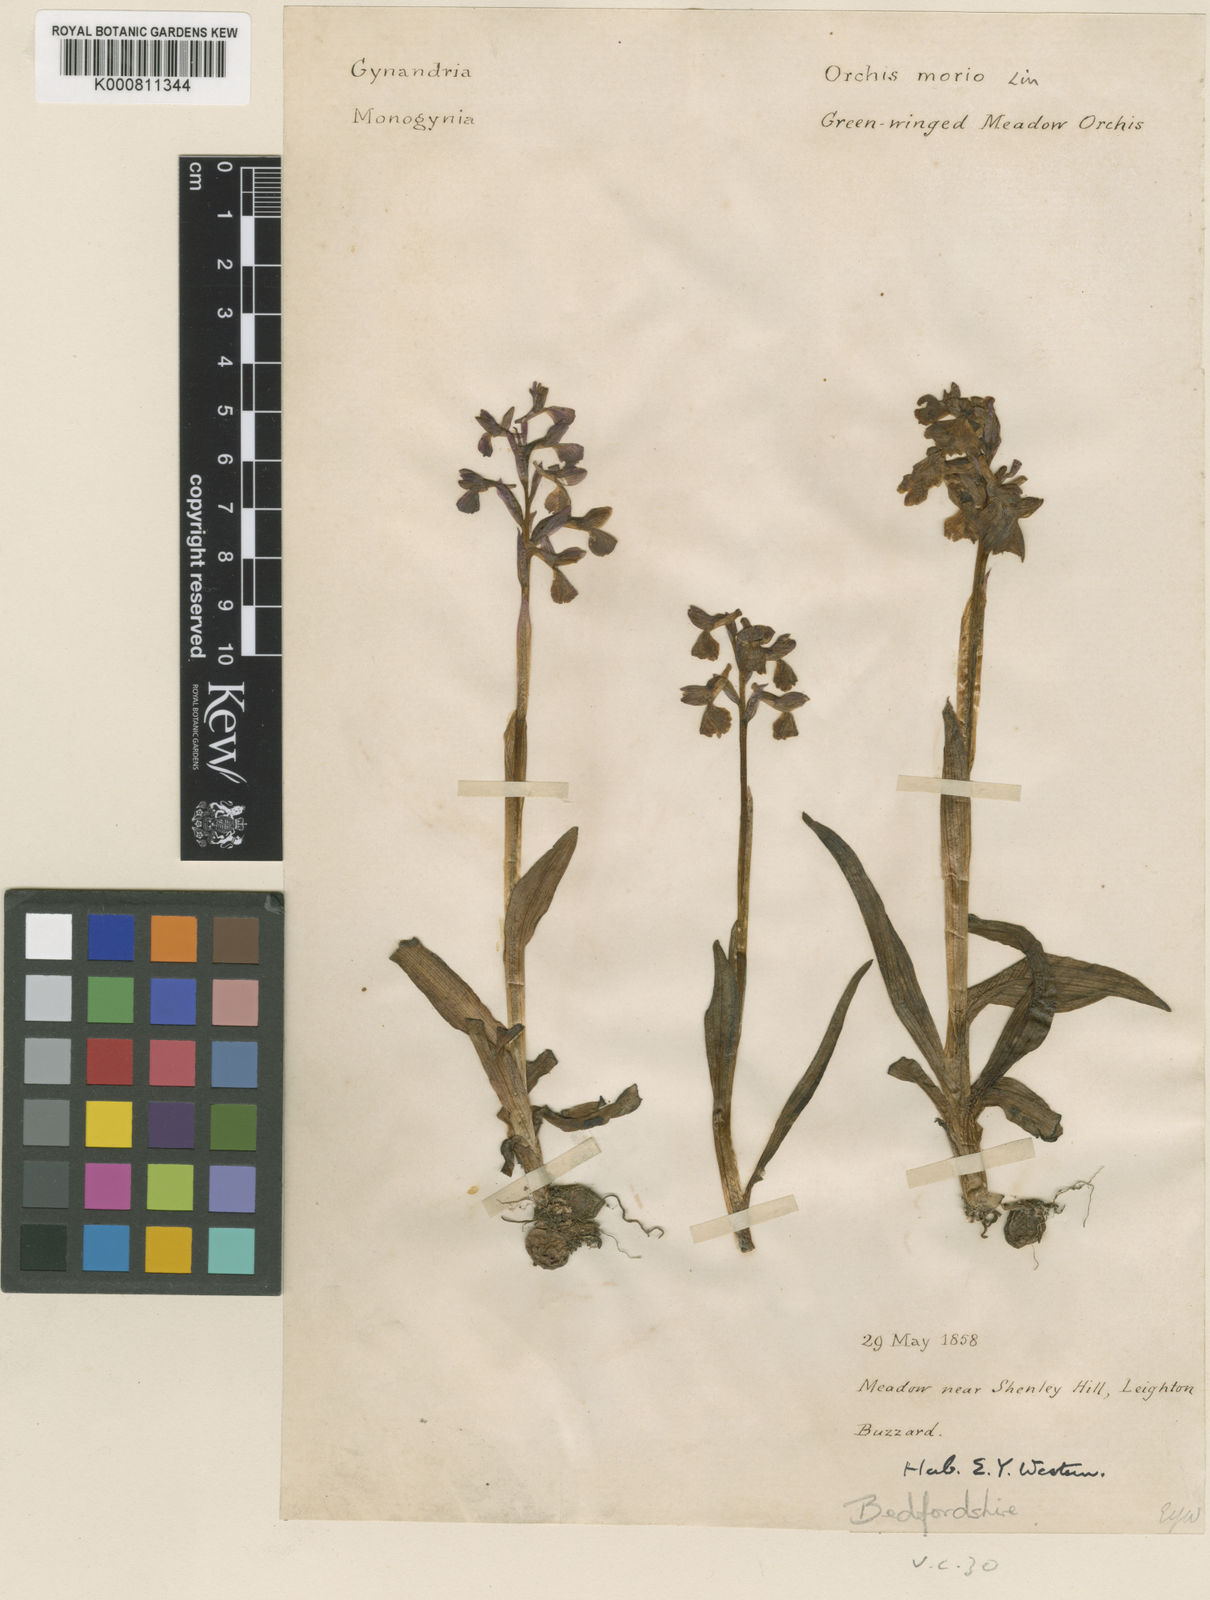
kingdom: Plantae
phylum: Tracheophyta
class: Liliopsida
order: Asparagales
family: Orchidaceae
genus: Anacamptis
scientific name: Anacamptis morio
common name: Green-winged orchid
